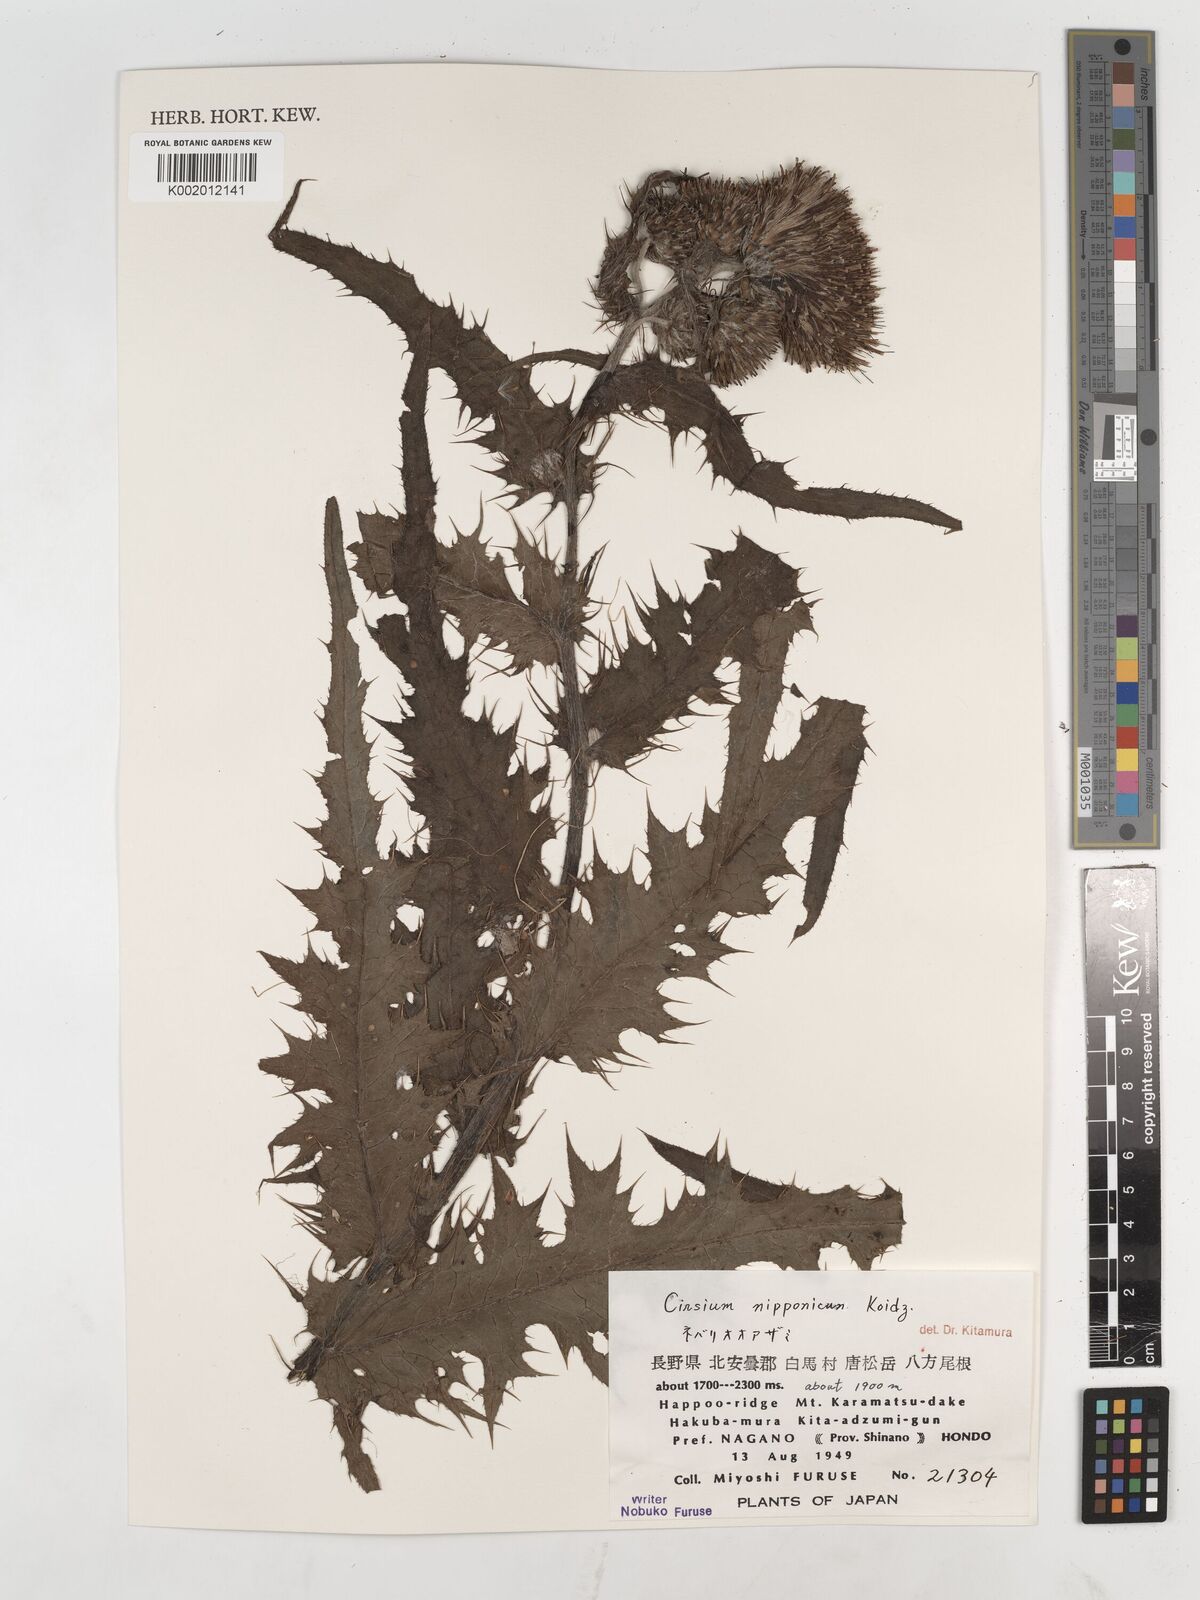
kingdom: Plantae
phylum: Tracheophyta
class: Magnoliopsida
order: Asterales
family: Asteraceae
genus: Cirsium
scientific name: Cirsium nipponicum
